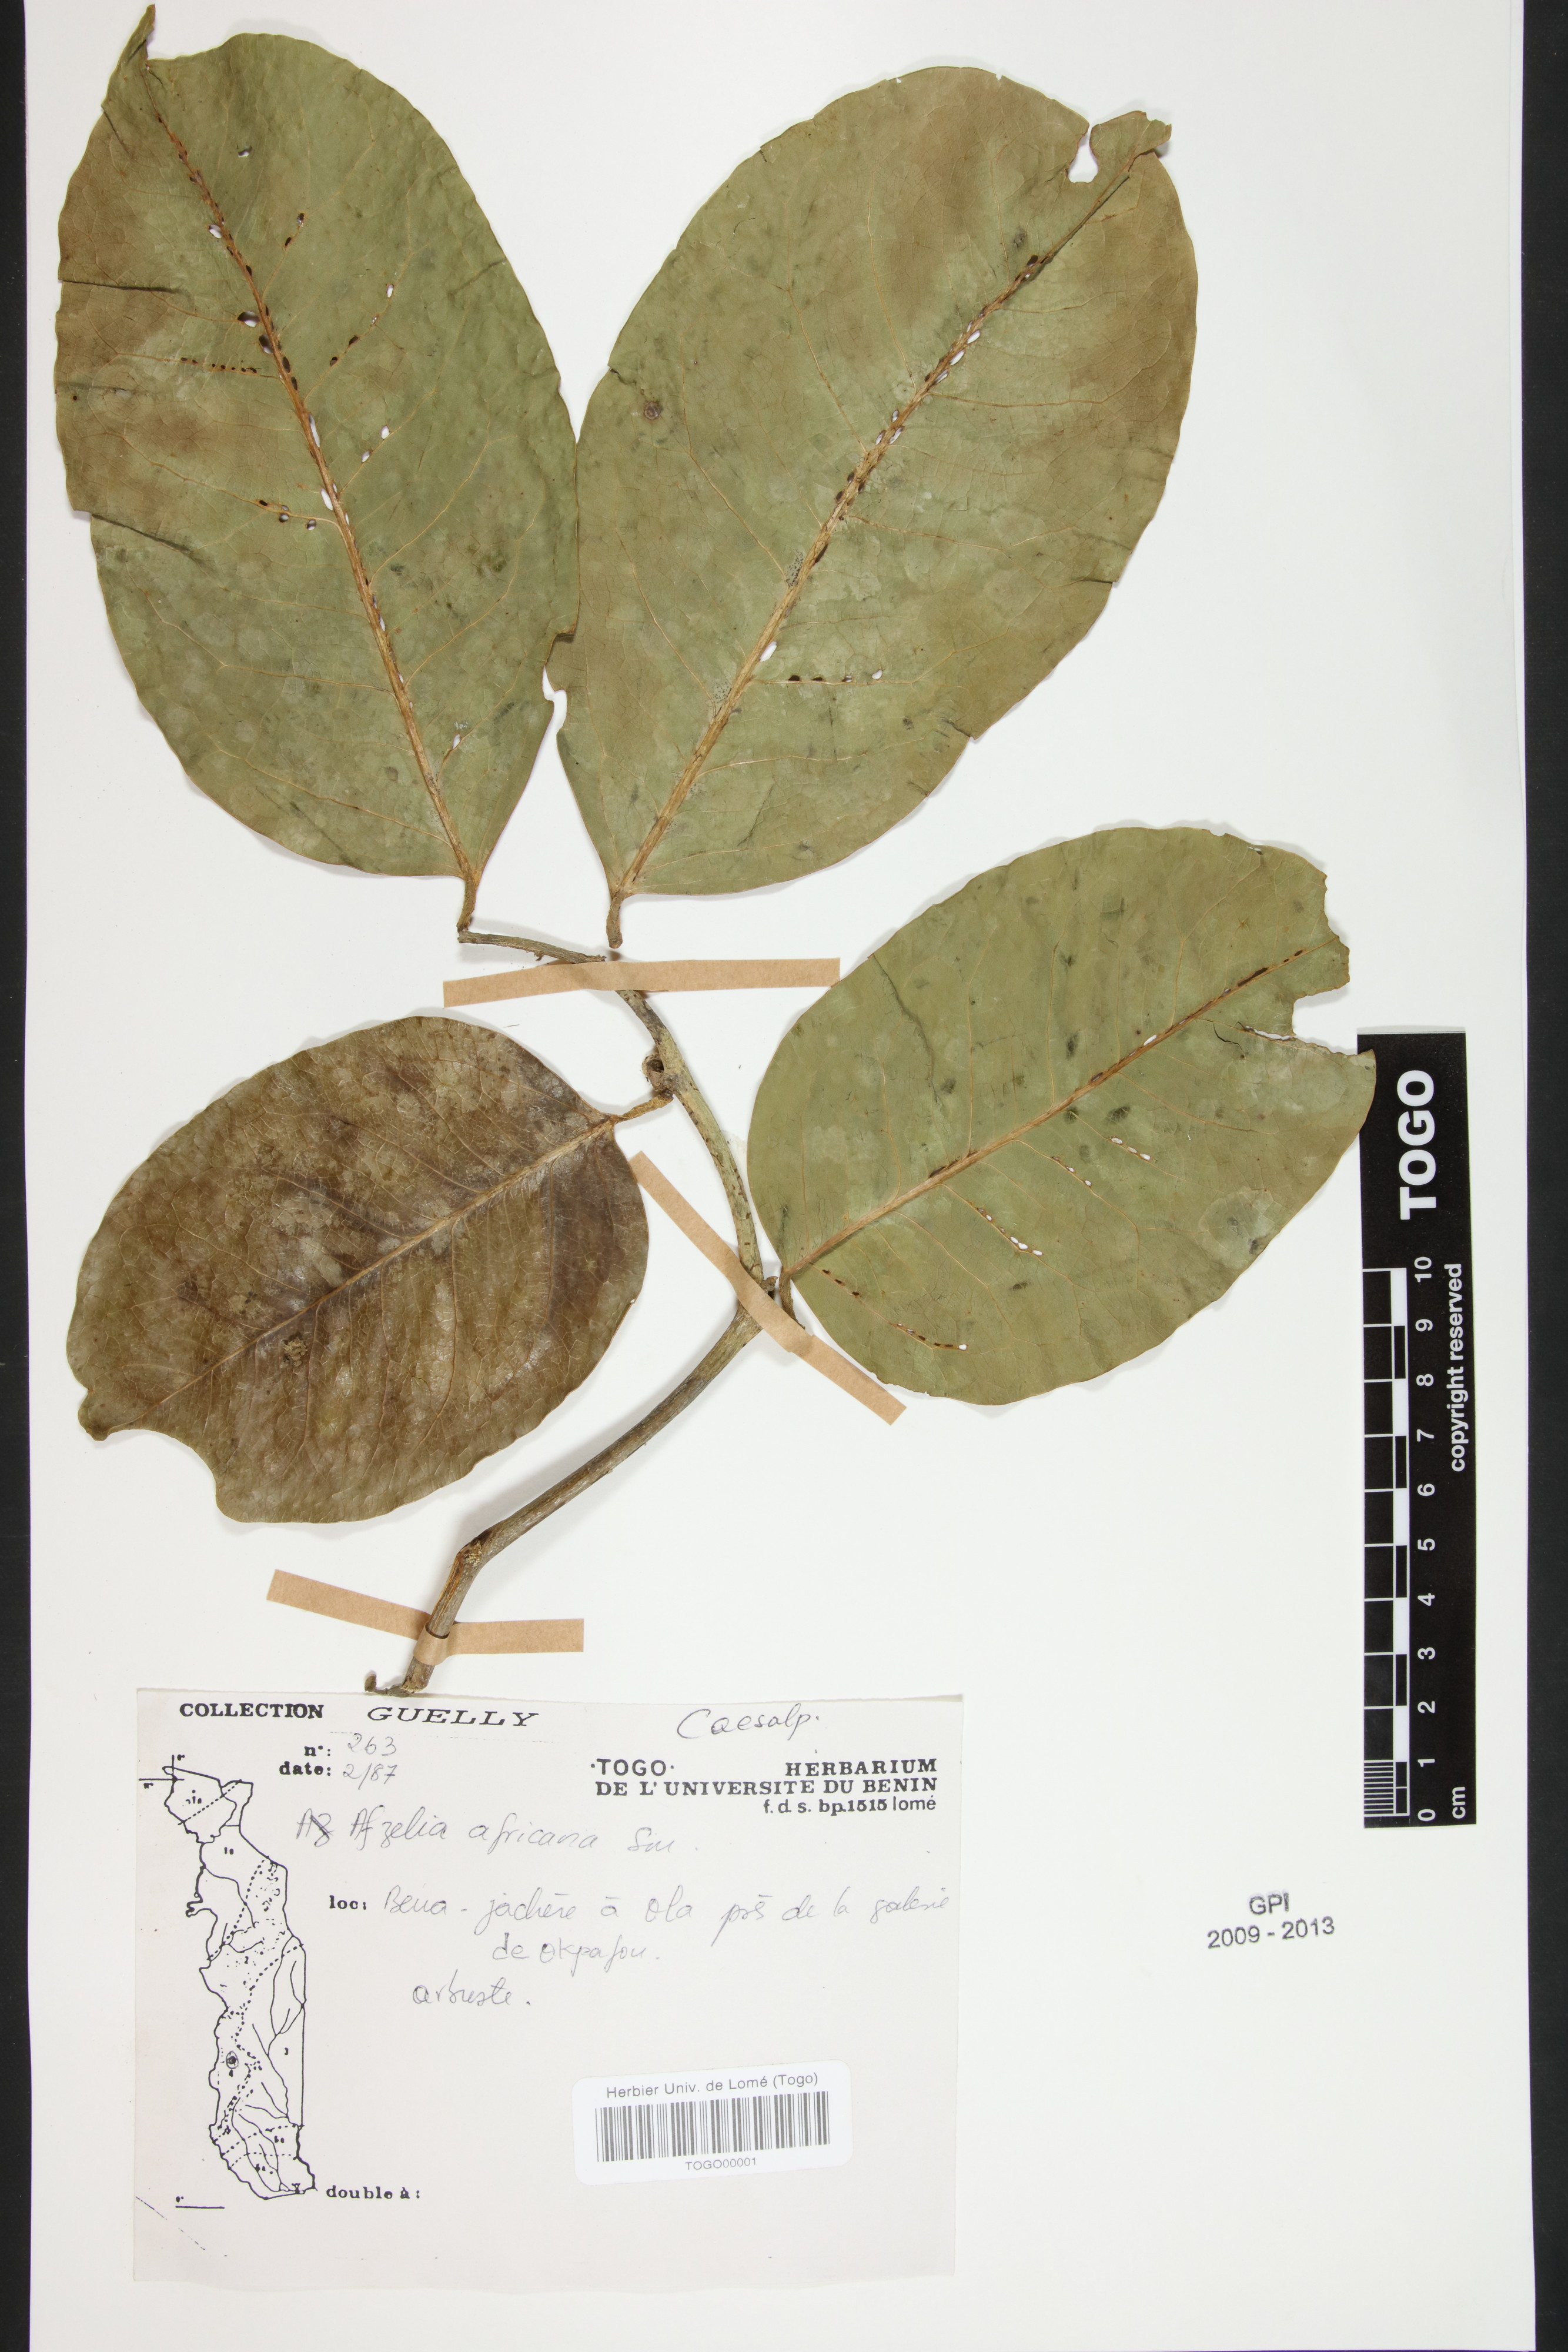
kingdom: Plantae
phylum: Tracheophyta
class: Magnoliopsida
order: Fabales
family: Fabaceae
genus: Afzelia
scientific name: Afzelia africana
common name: African-mahogany
